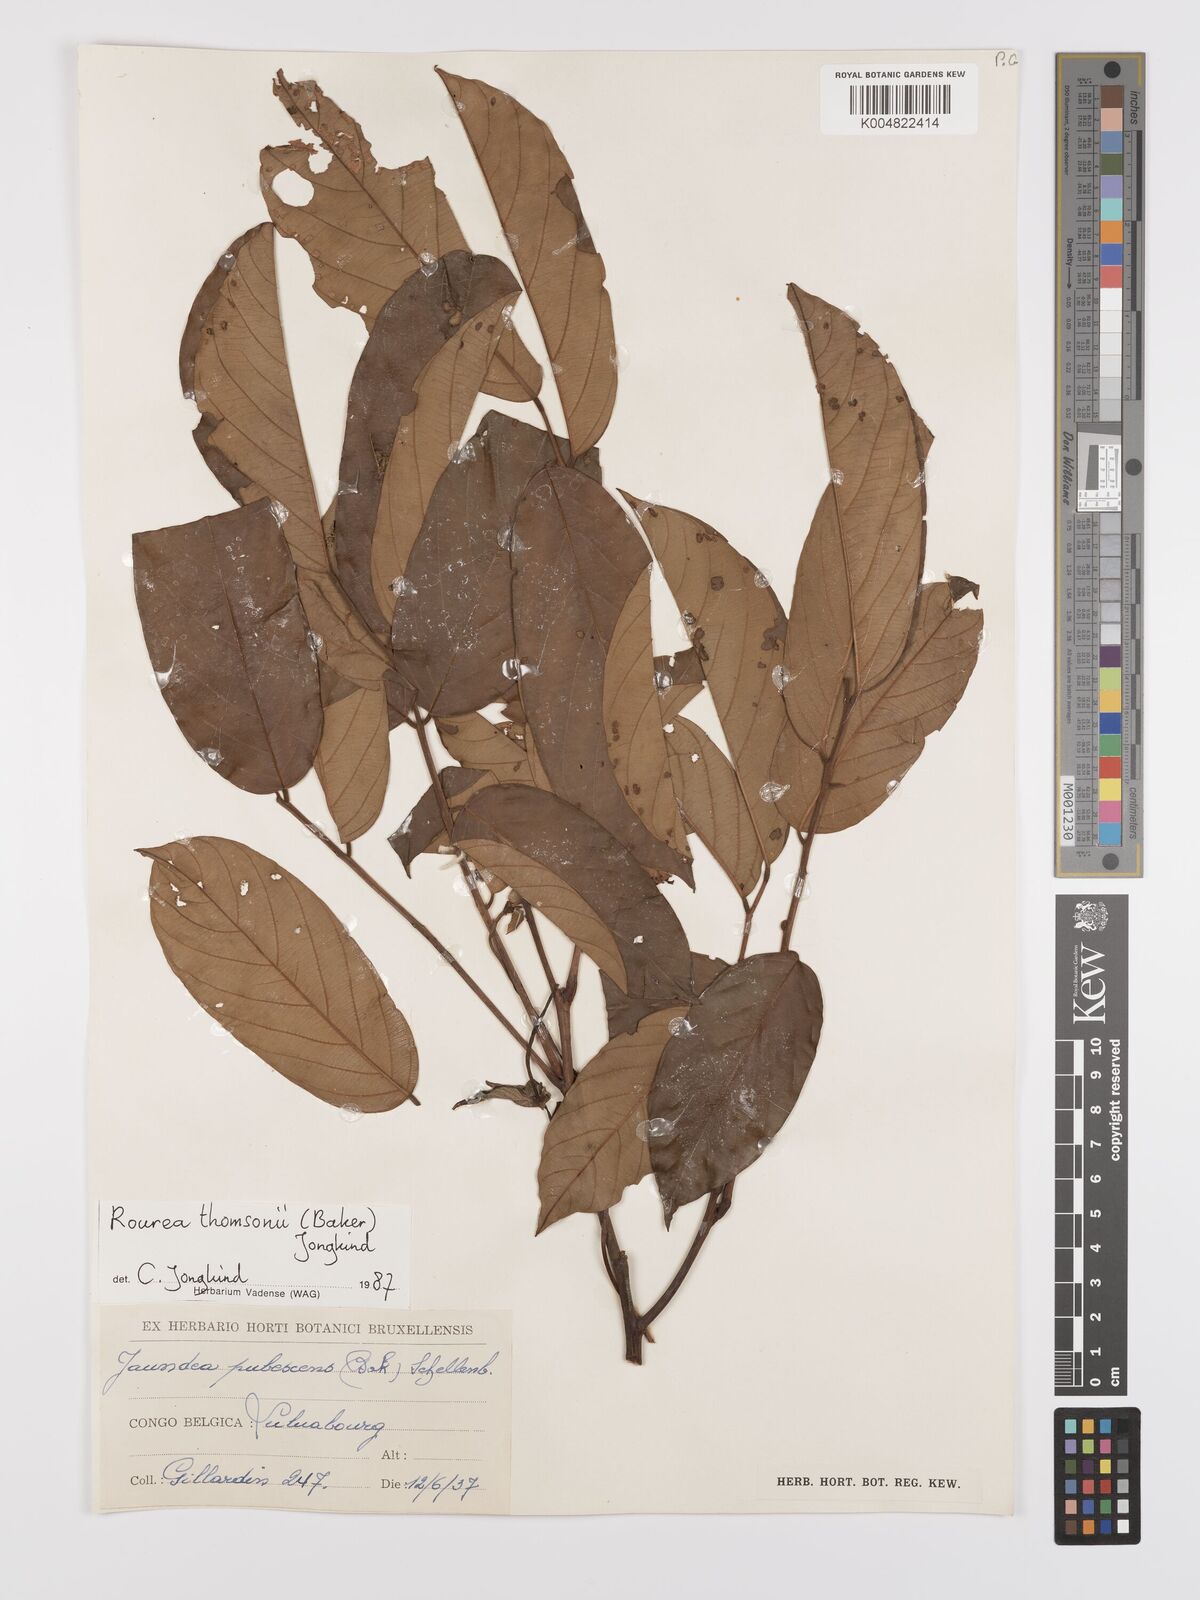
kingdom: Plantae
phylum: Tracheophyta
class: Magnoliopsida
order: Oxalidales
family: Connaraceae
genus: Rourea
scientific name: Rourea pubescens
